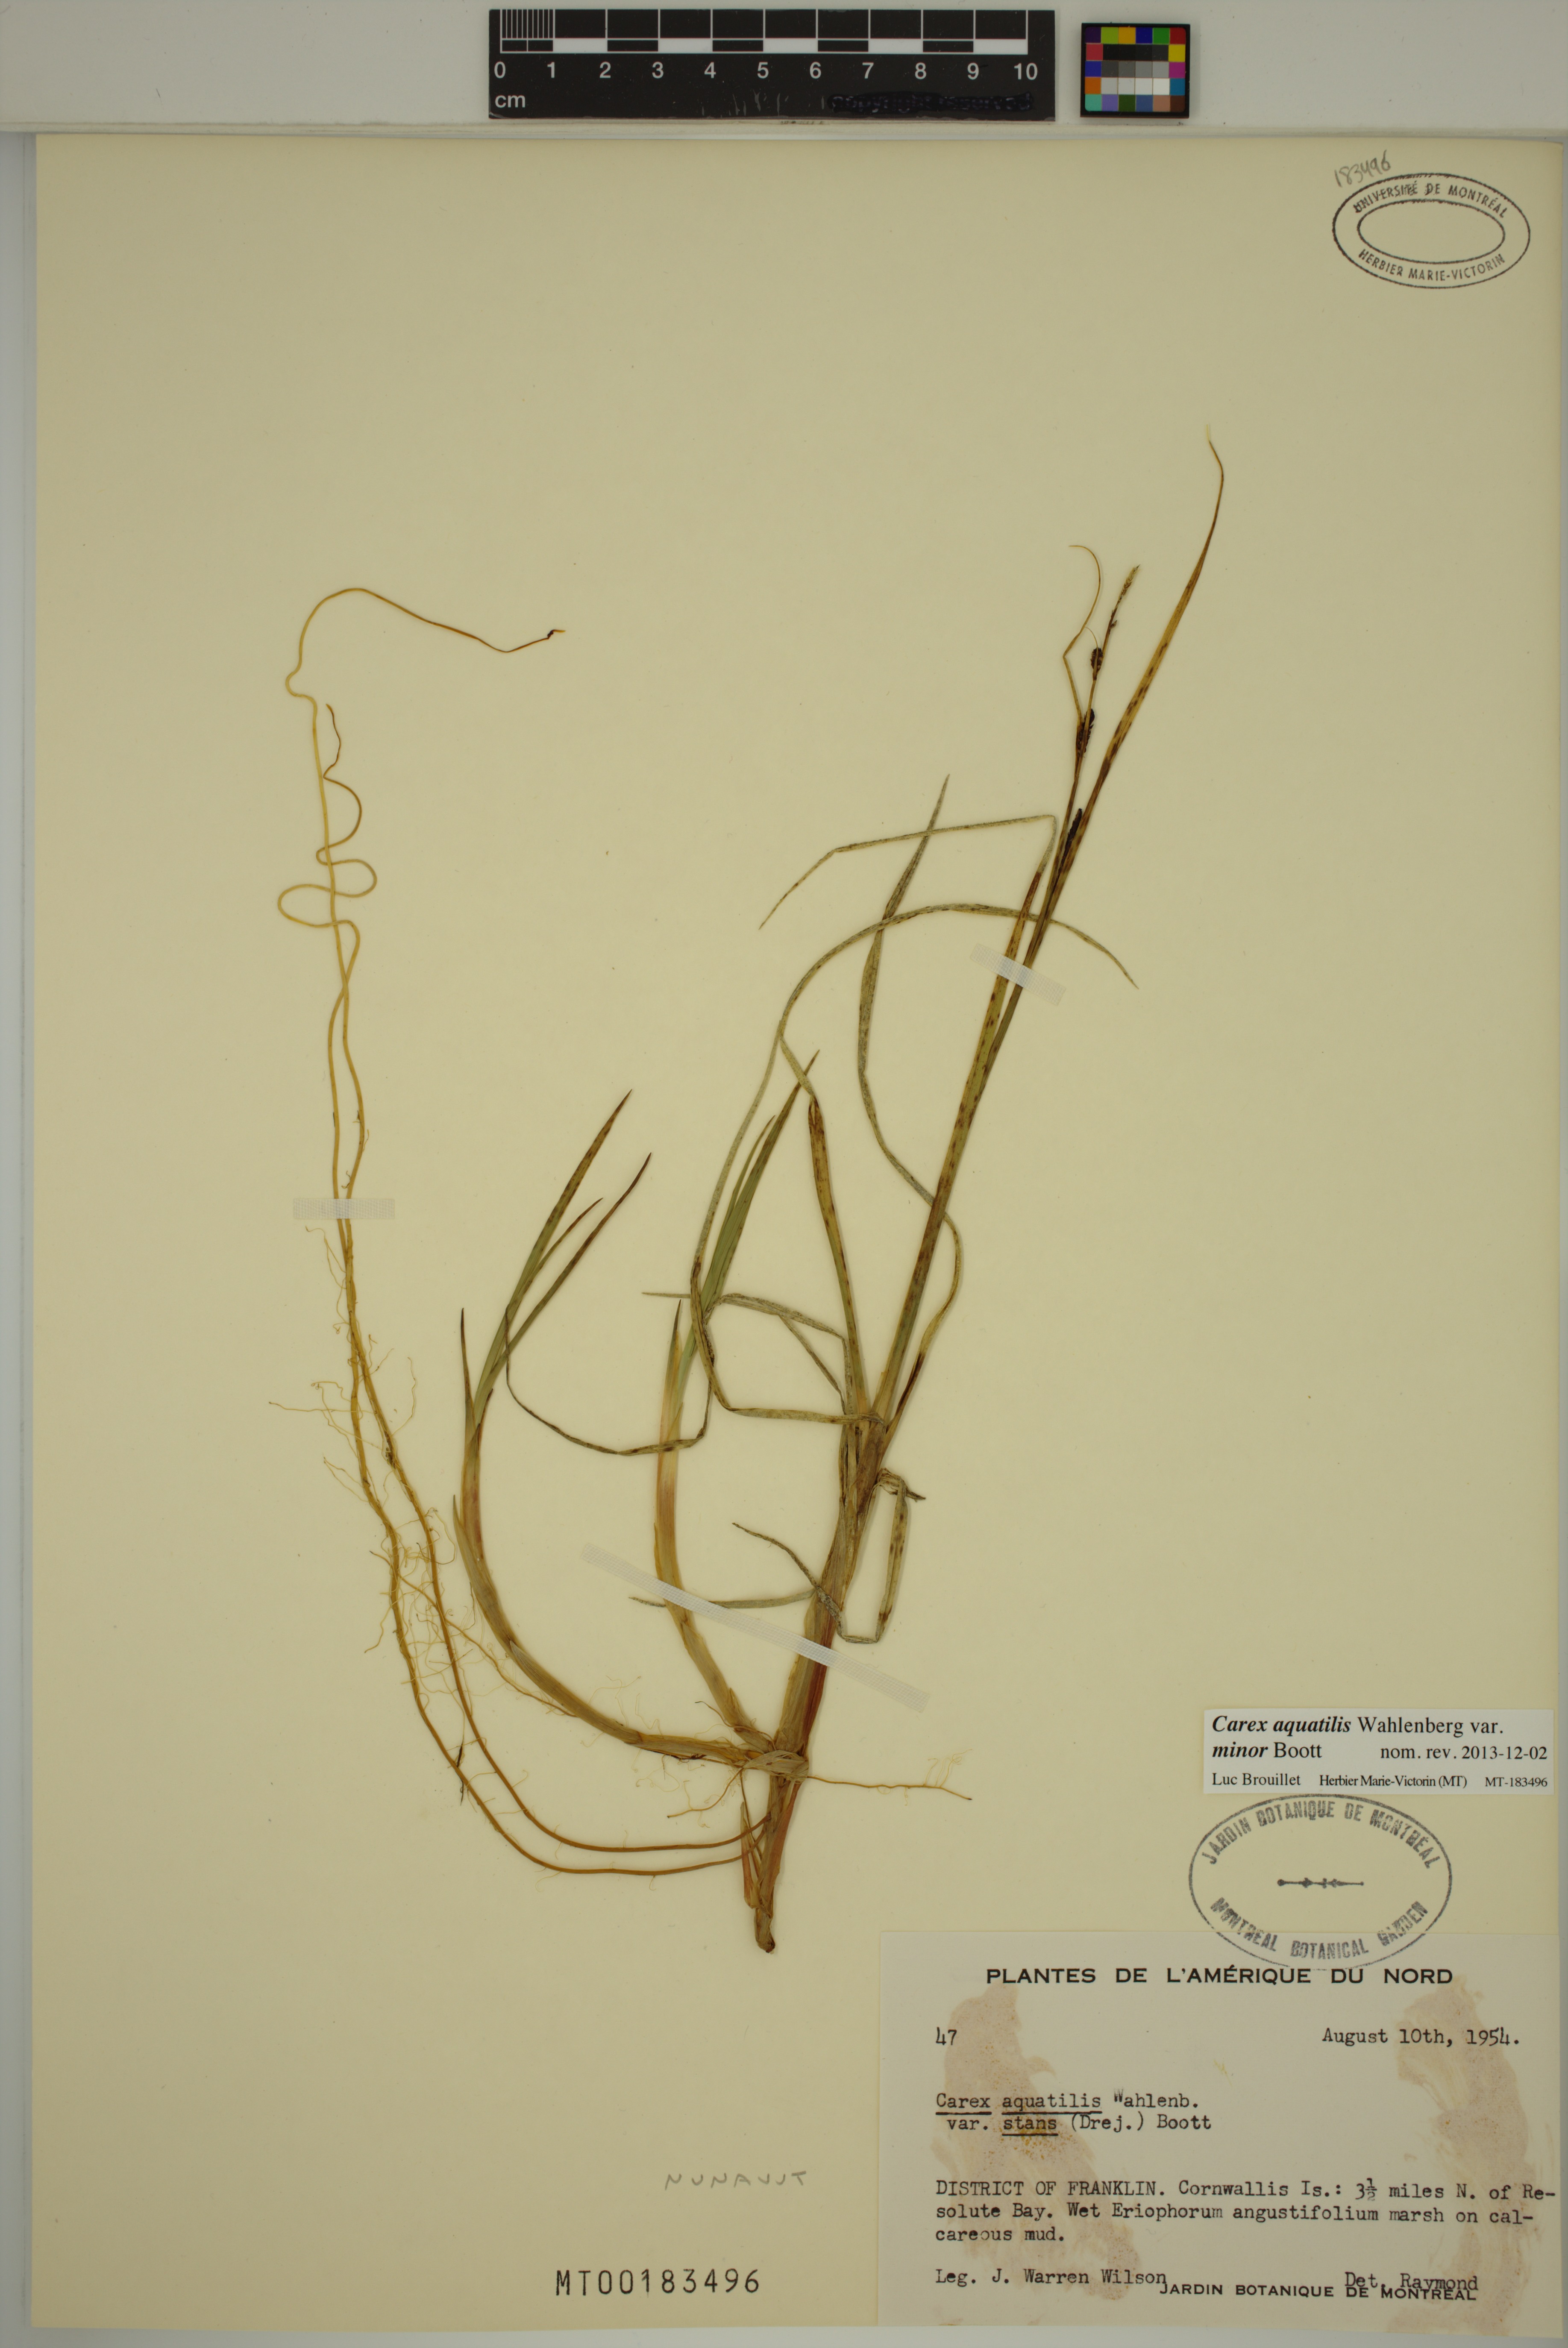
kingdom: Plantae
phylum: Tracheophyta
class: Liliopsida
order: Poales
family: Cyperaceae
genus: Carex
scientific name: Carex aquatilis
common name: Water sedge
